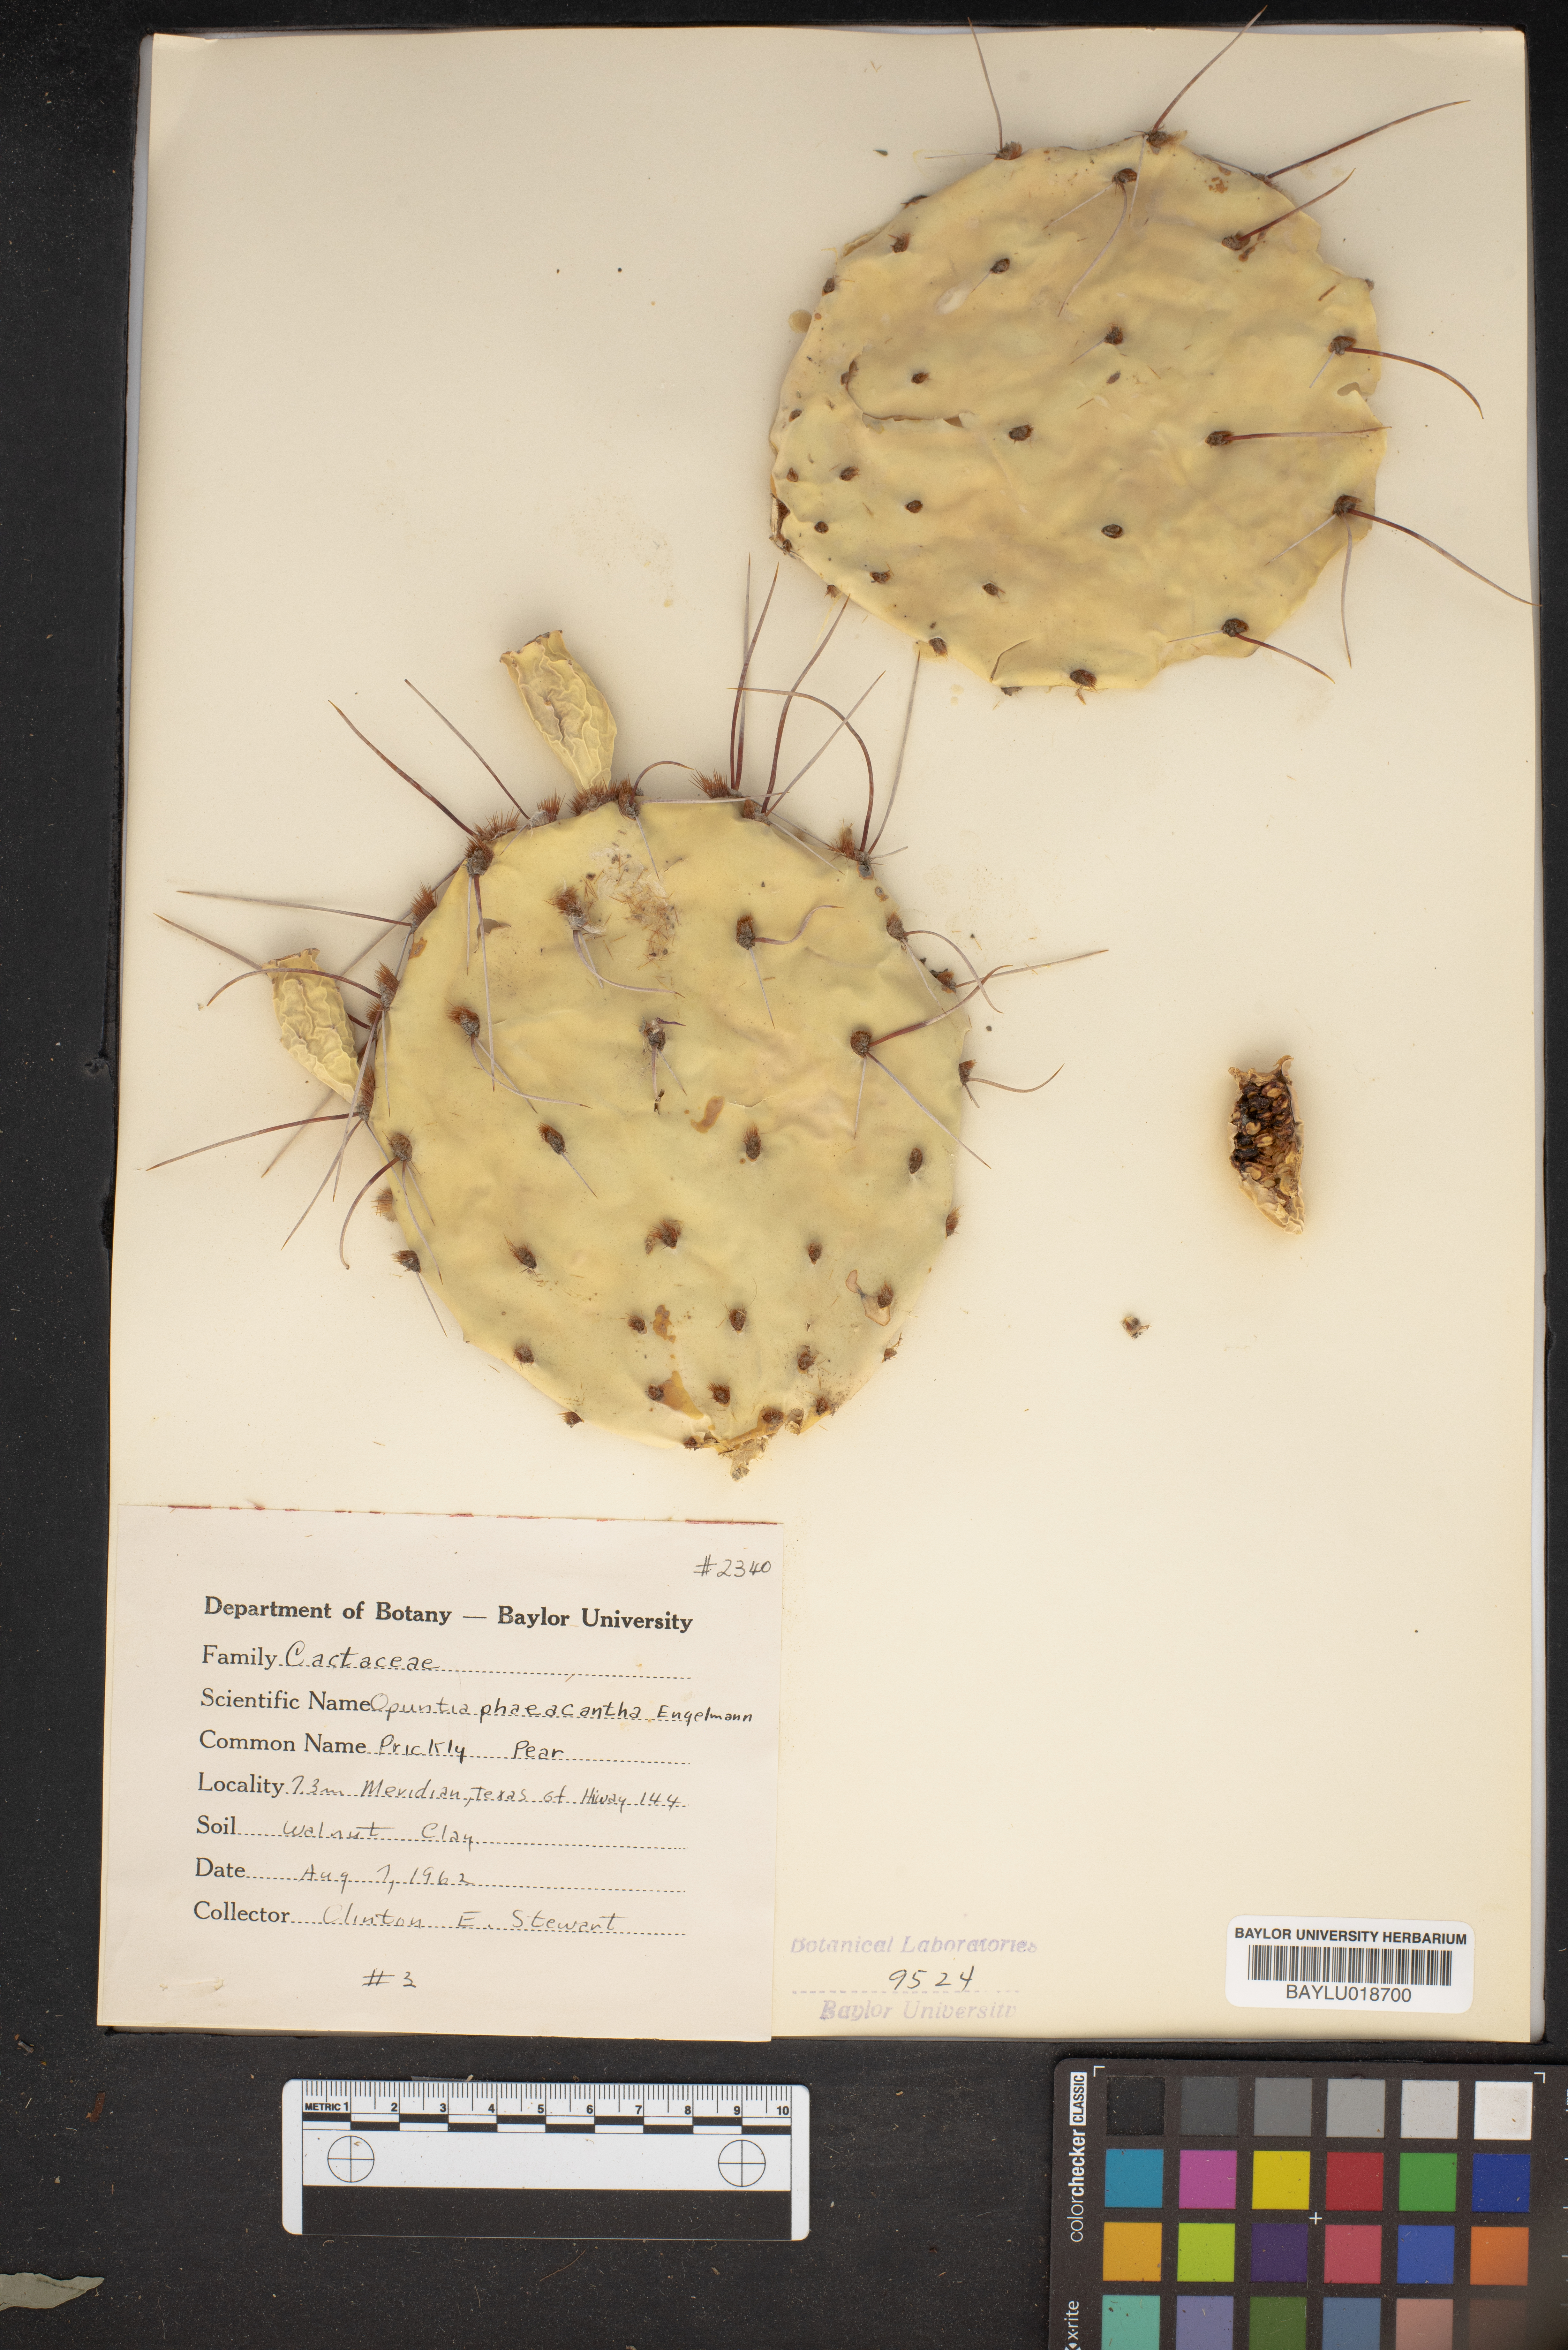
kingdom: Plantae
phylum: Tracheophyta
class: Magnoliopsida
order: Caryophyllales
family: Cactaceae
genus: Opuntia
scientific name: Opuntia phaeacantha
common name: New mexico prickly-pear
